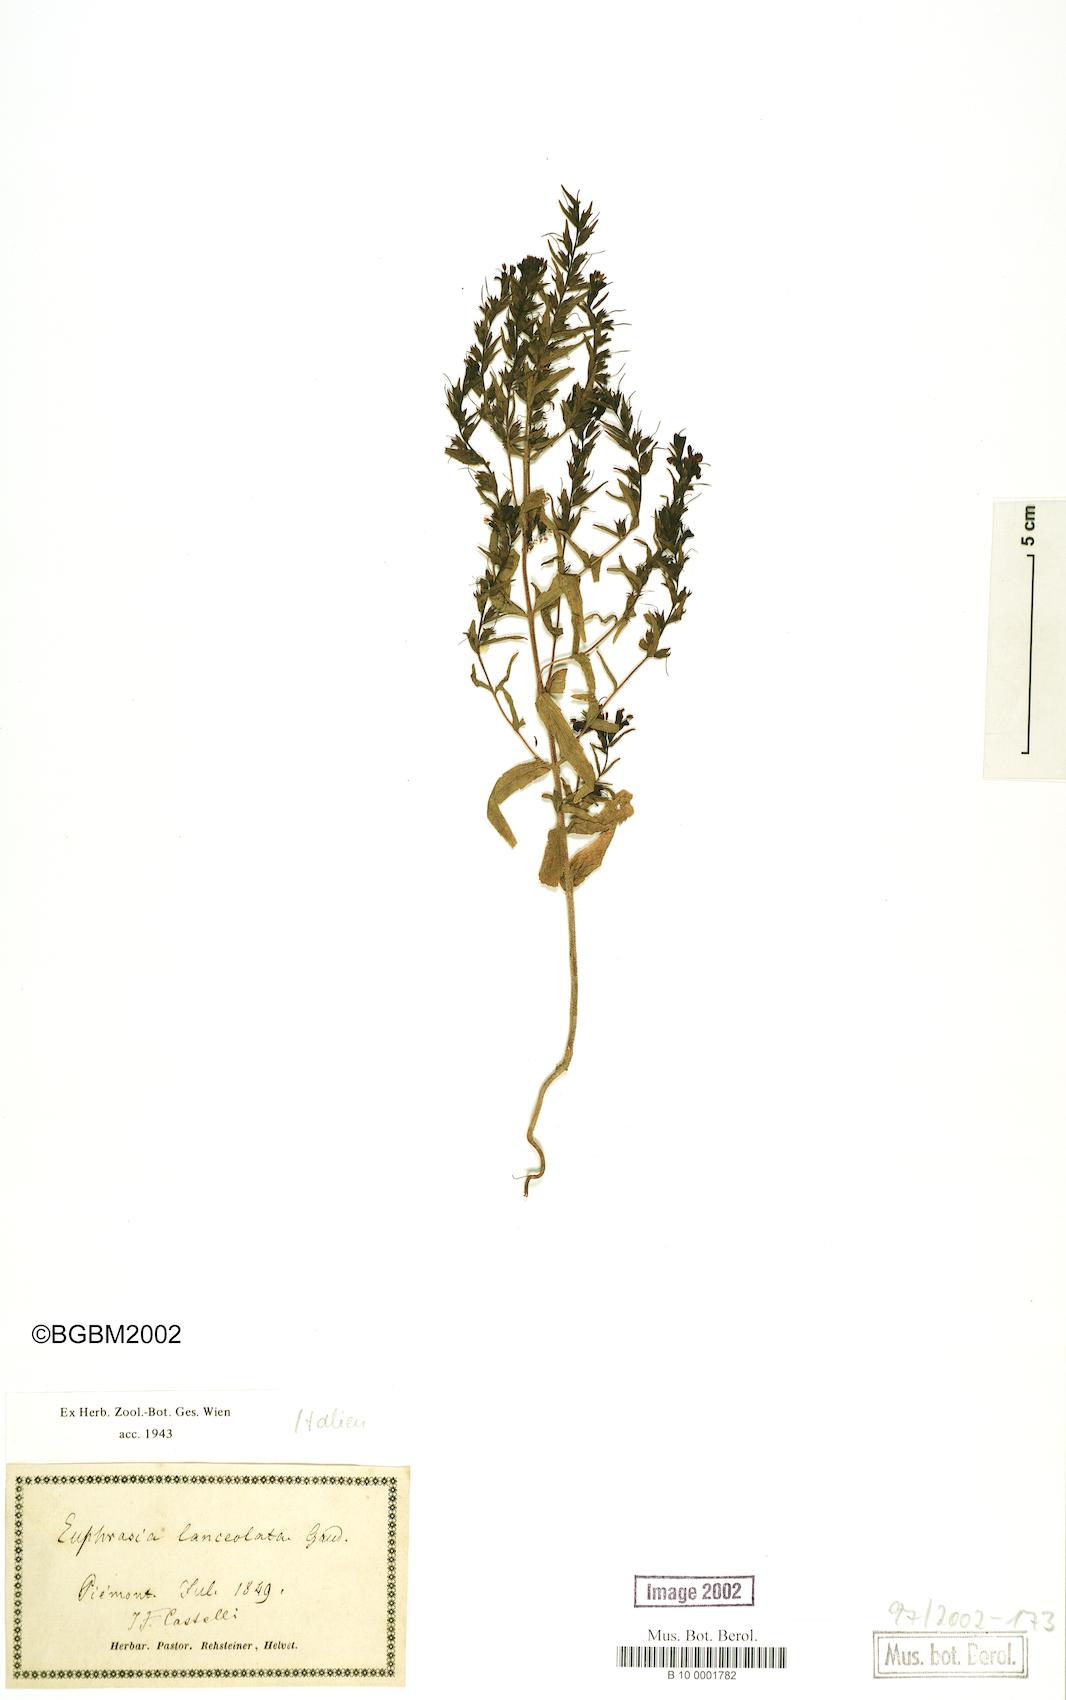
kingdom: Plantae
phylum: Tracheophyta
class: Magnoliopsida
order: Lamiales
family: Orobanchaceae
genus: Odontites
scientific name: Odontites lanceolatus
